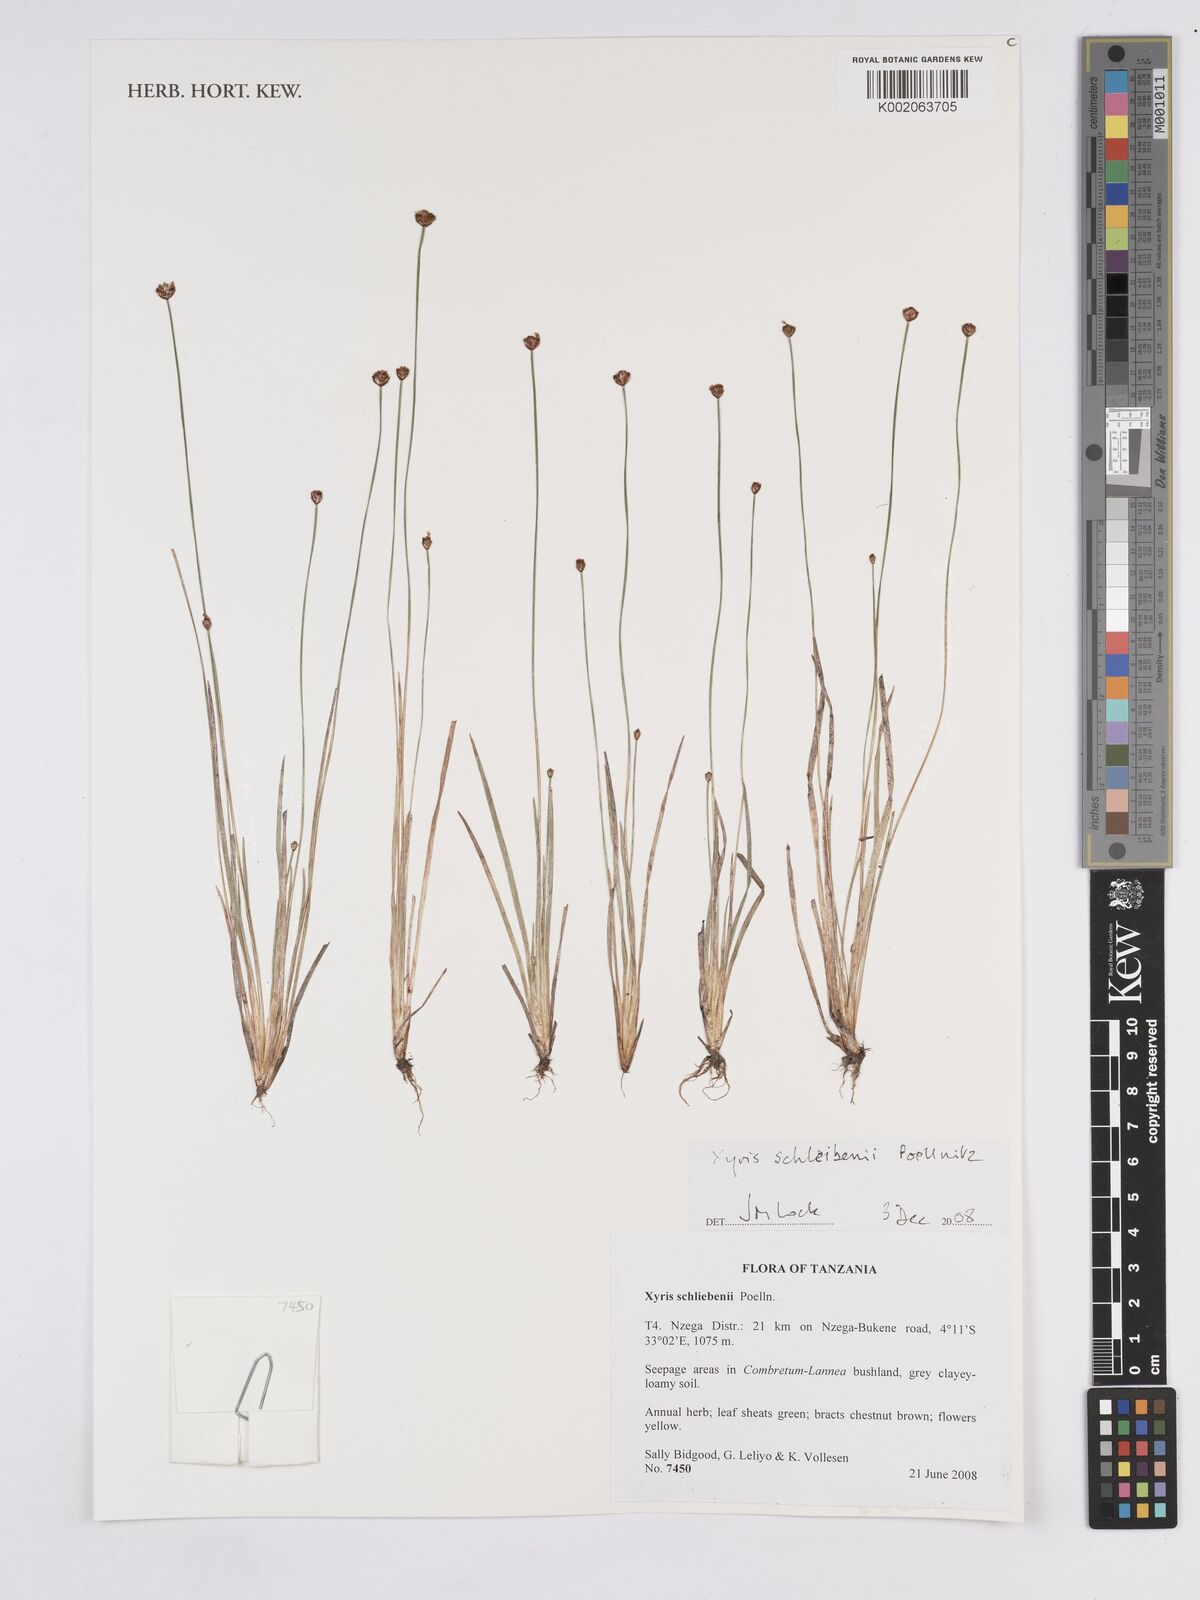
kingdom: Plantae
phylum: Tracheophyta
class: Liliopsida
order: Poales
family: Xyridaceae
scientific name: Xyridaceae
